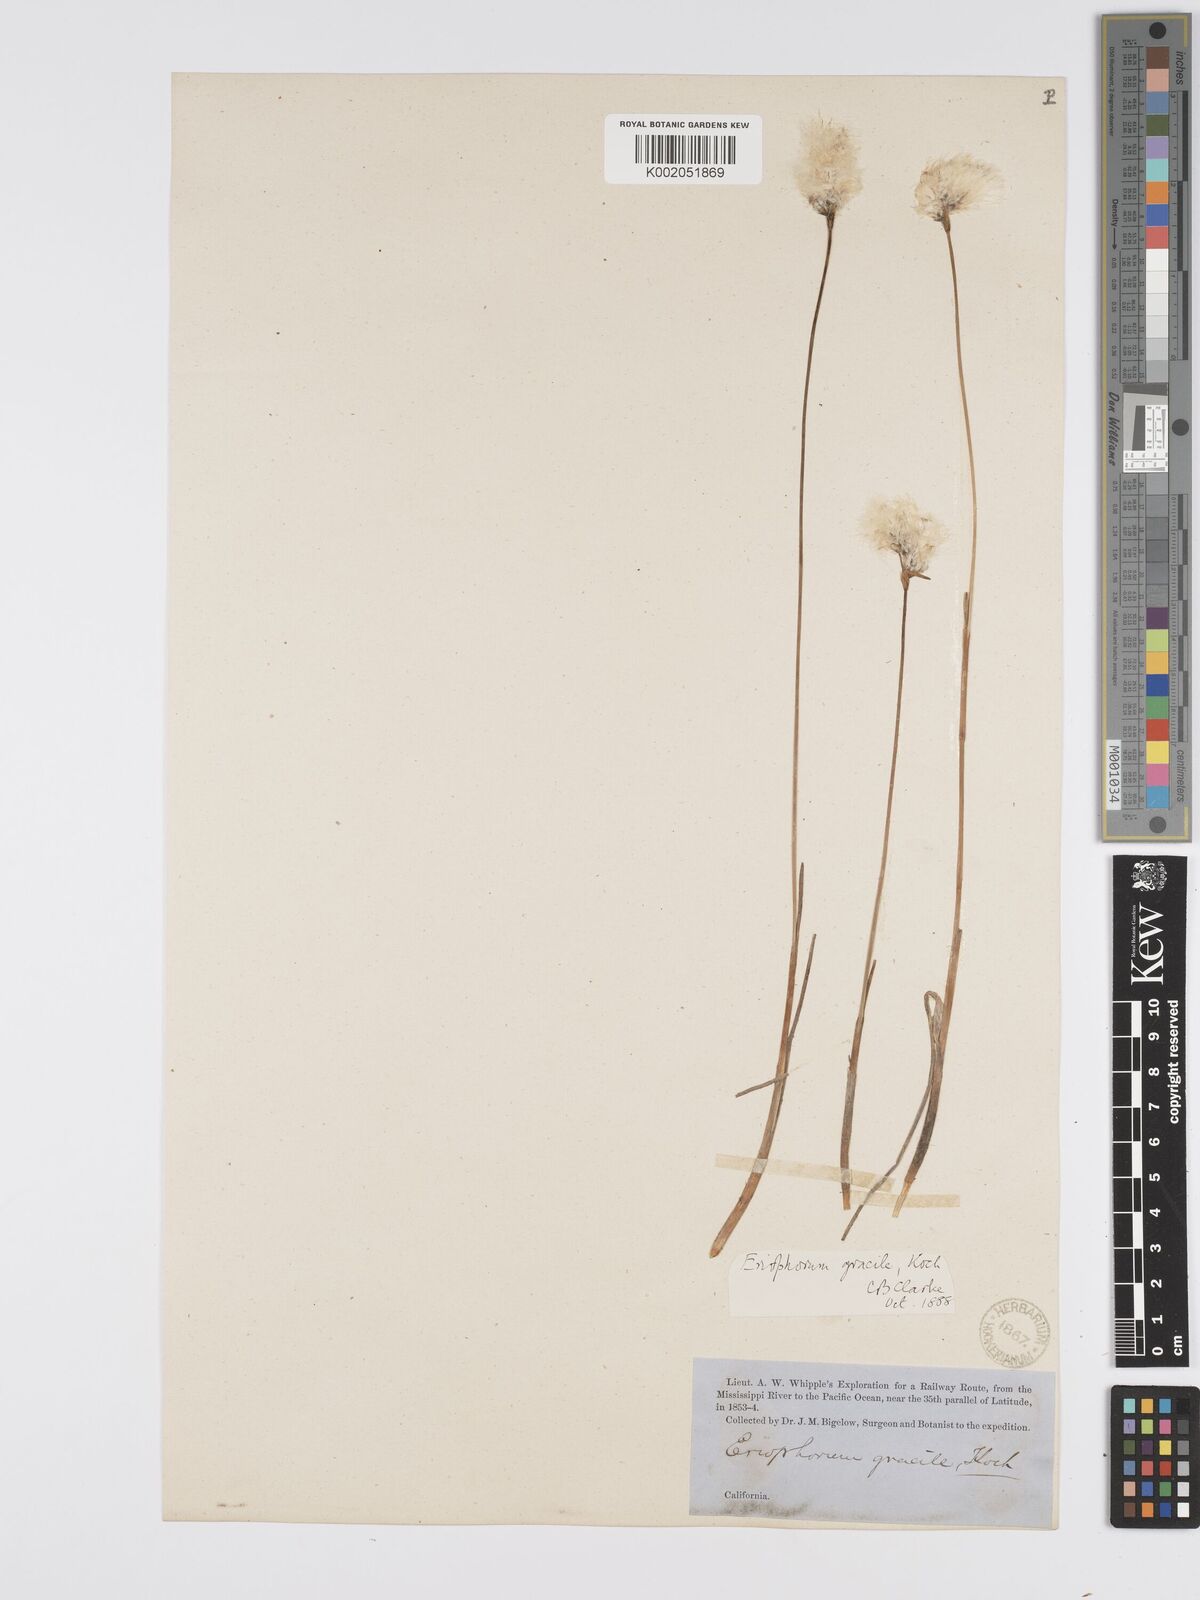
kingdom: Plantae
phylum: Tracheophyta
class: Liliopsida
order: Poales
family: Cyperaceae
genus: Eriophorum
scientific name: Eriophorum gracile
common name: Slender cottongrass
